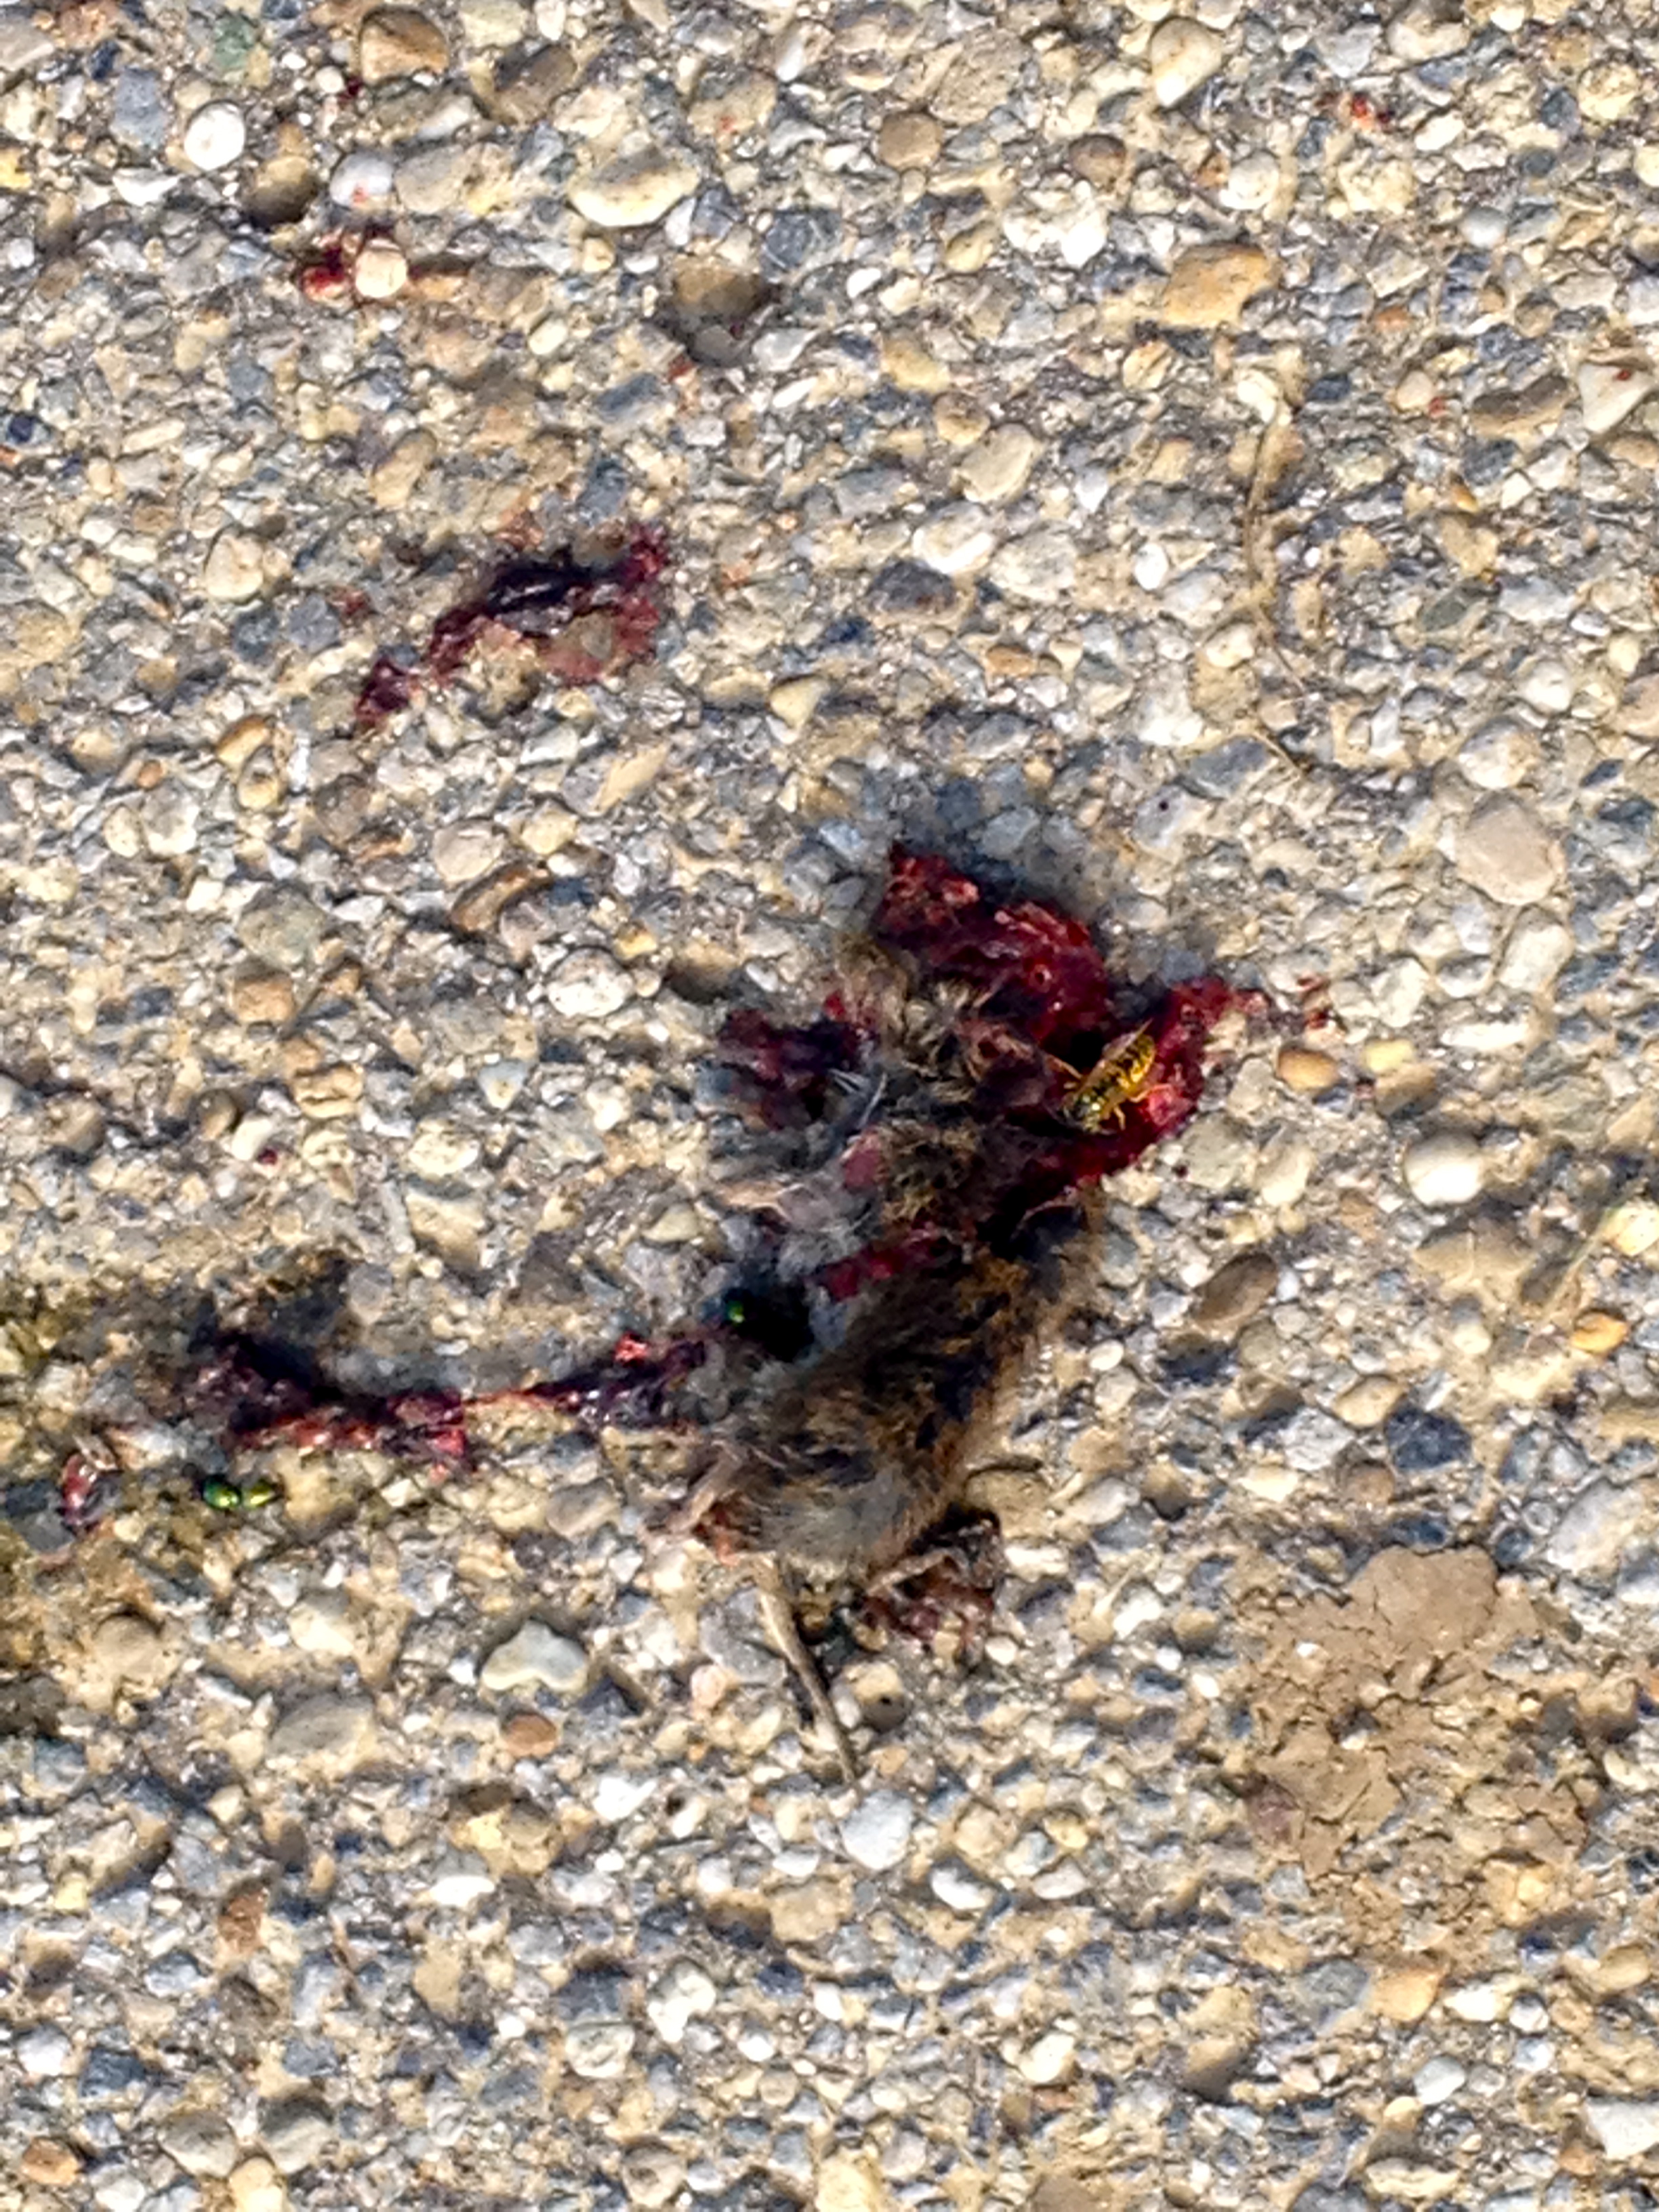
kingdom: Animalia
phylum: Chordata
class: Mammalia
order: Rodentia
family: Cricetidae
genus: Myodes
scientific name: Myodes glareolus
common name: Bank vole
